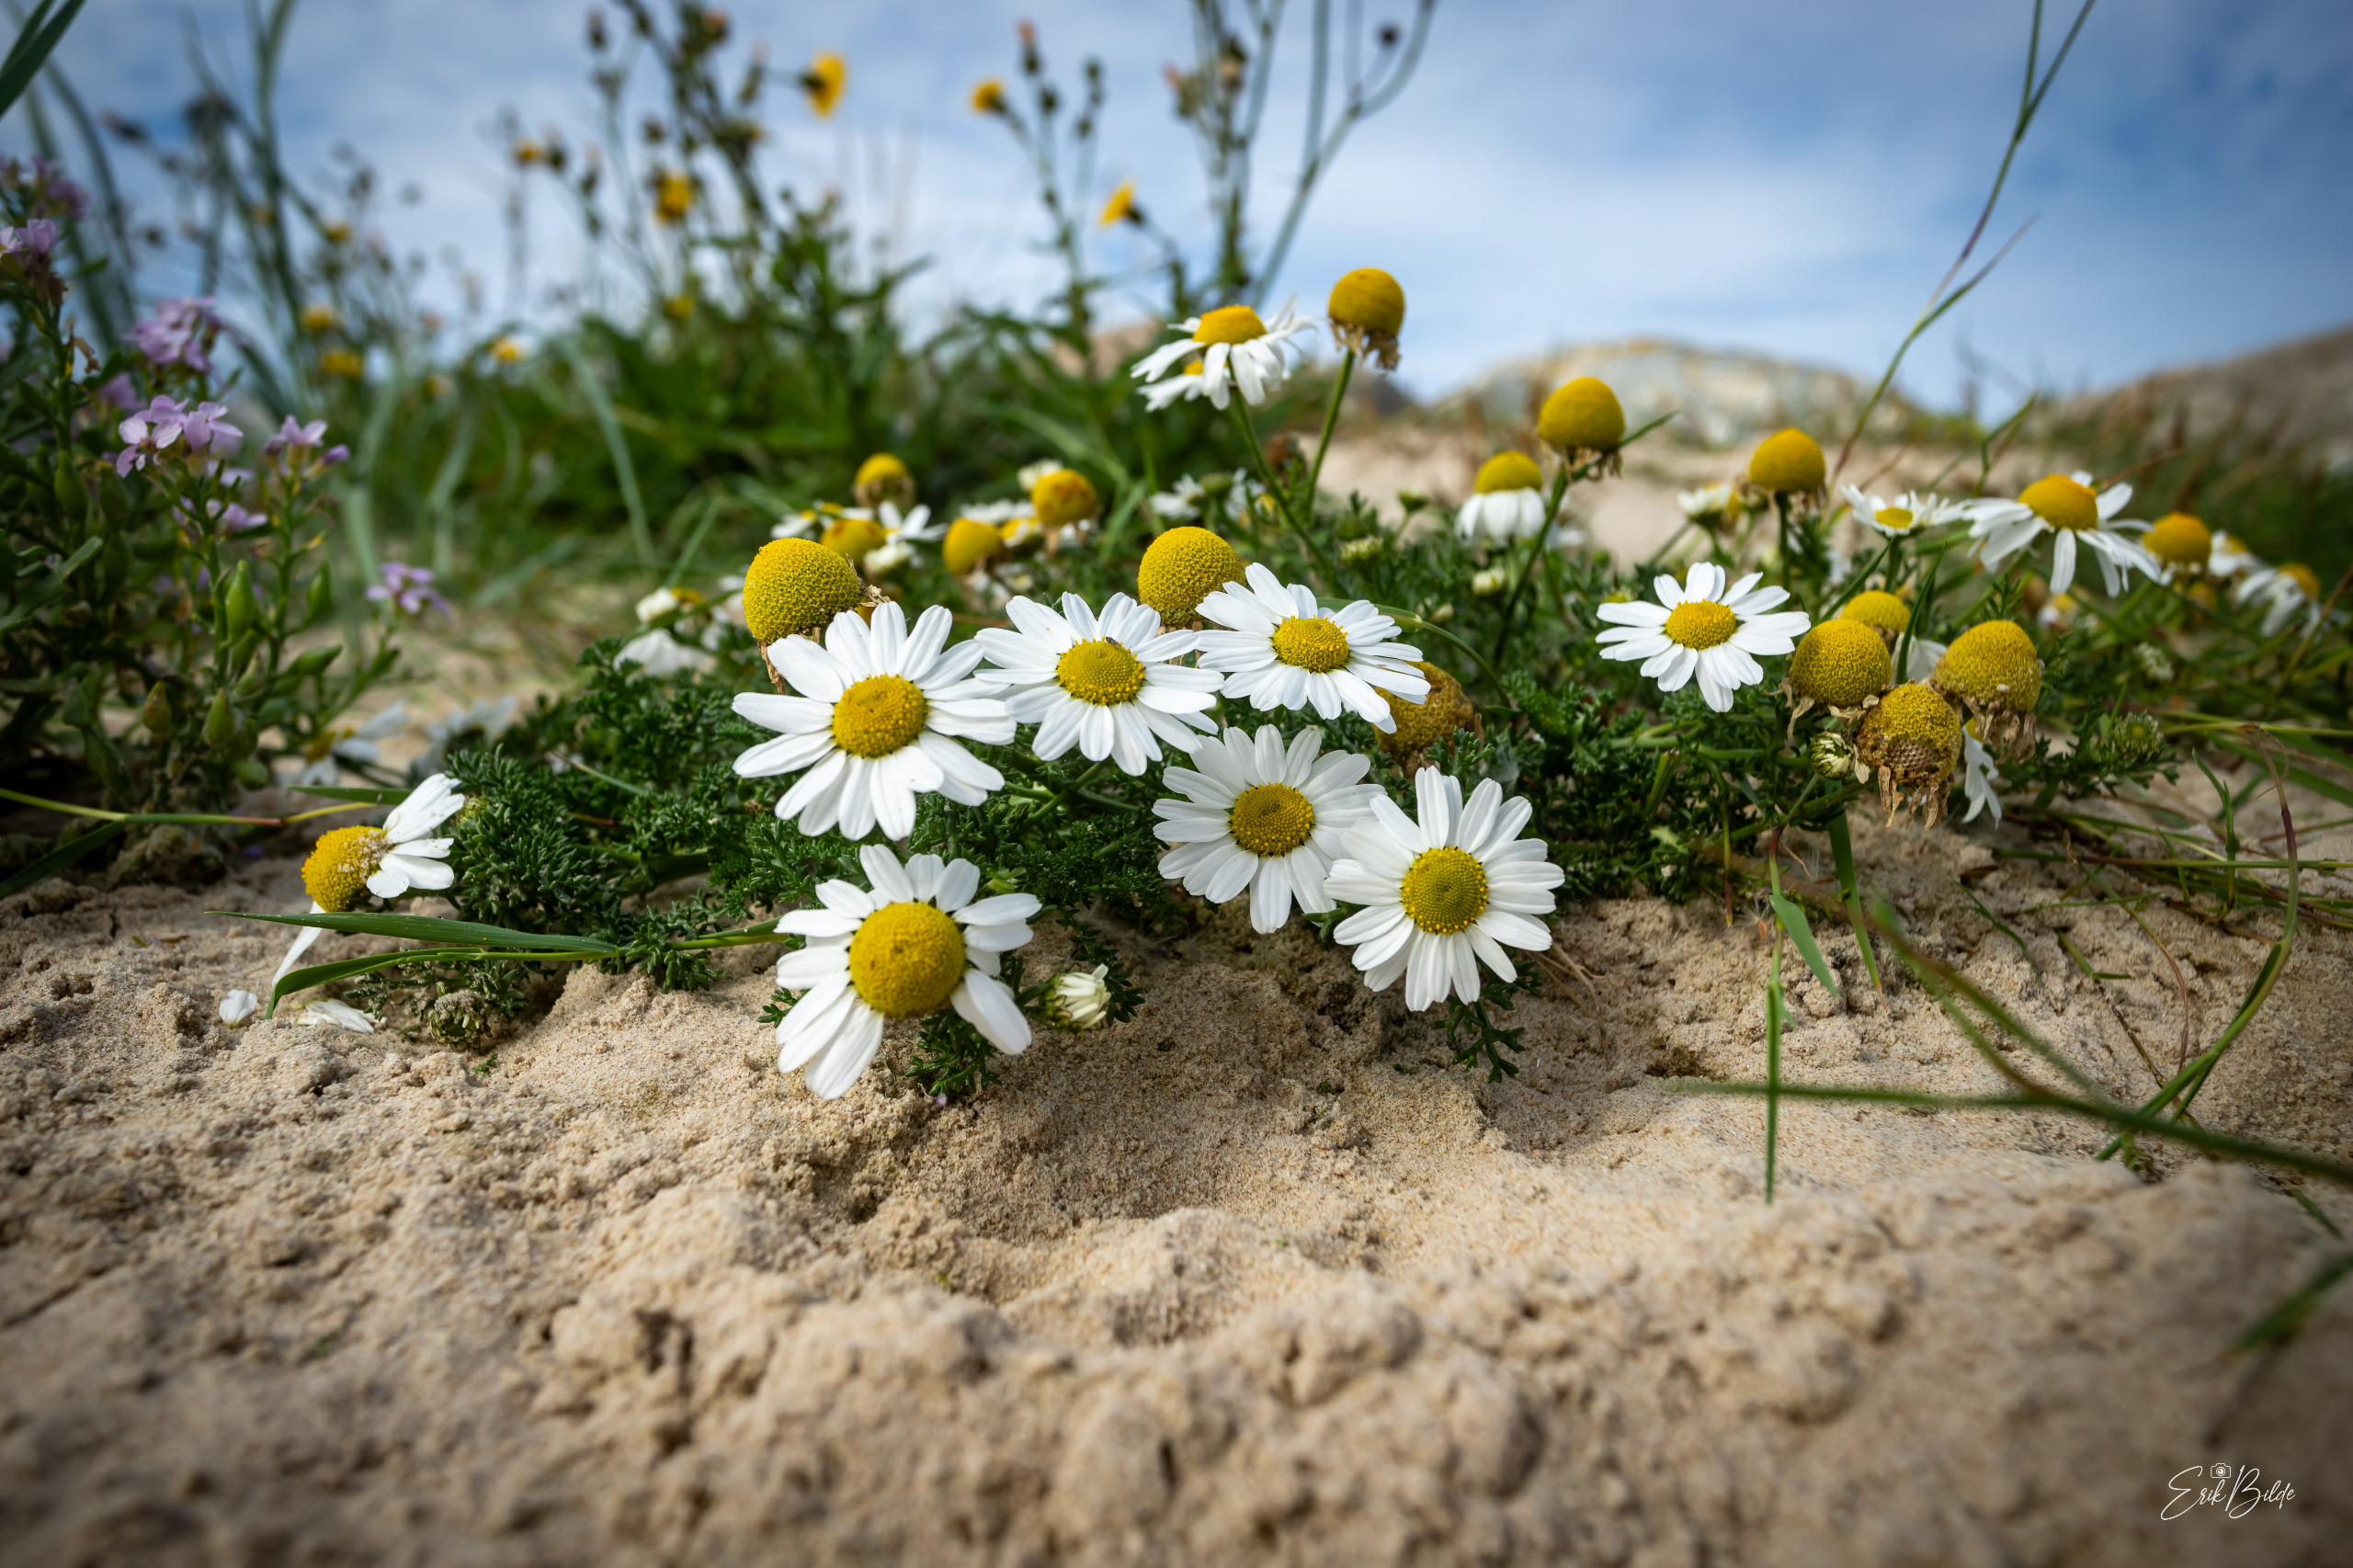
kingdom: Plantae
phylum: Tracheophyta
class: Magnoliopsida
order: Asterales
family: Asteraceae
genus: Tripleurospermum
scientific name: Tripleurospermum maritimum
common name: Strand-kamille
